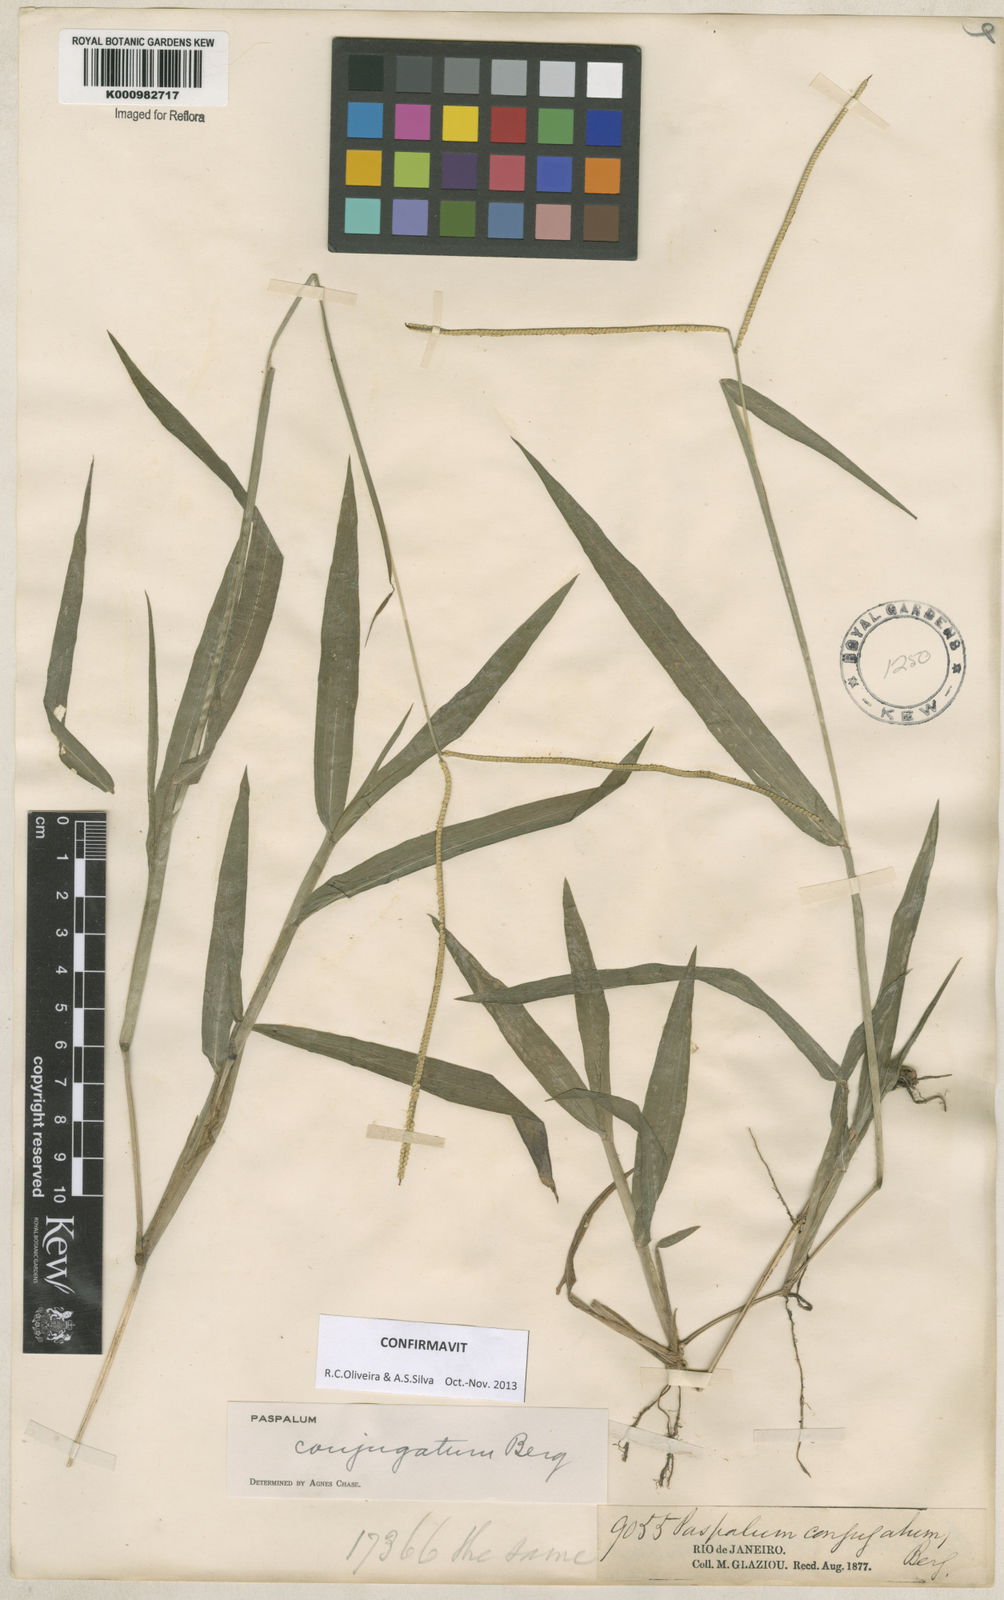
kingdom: Plantae
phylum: Tracheophyta
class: Liliopsida
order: Poales
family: Poaceae
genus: Paspalum
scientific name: Paspalum conjugatum
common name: Hilograss
